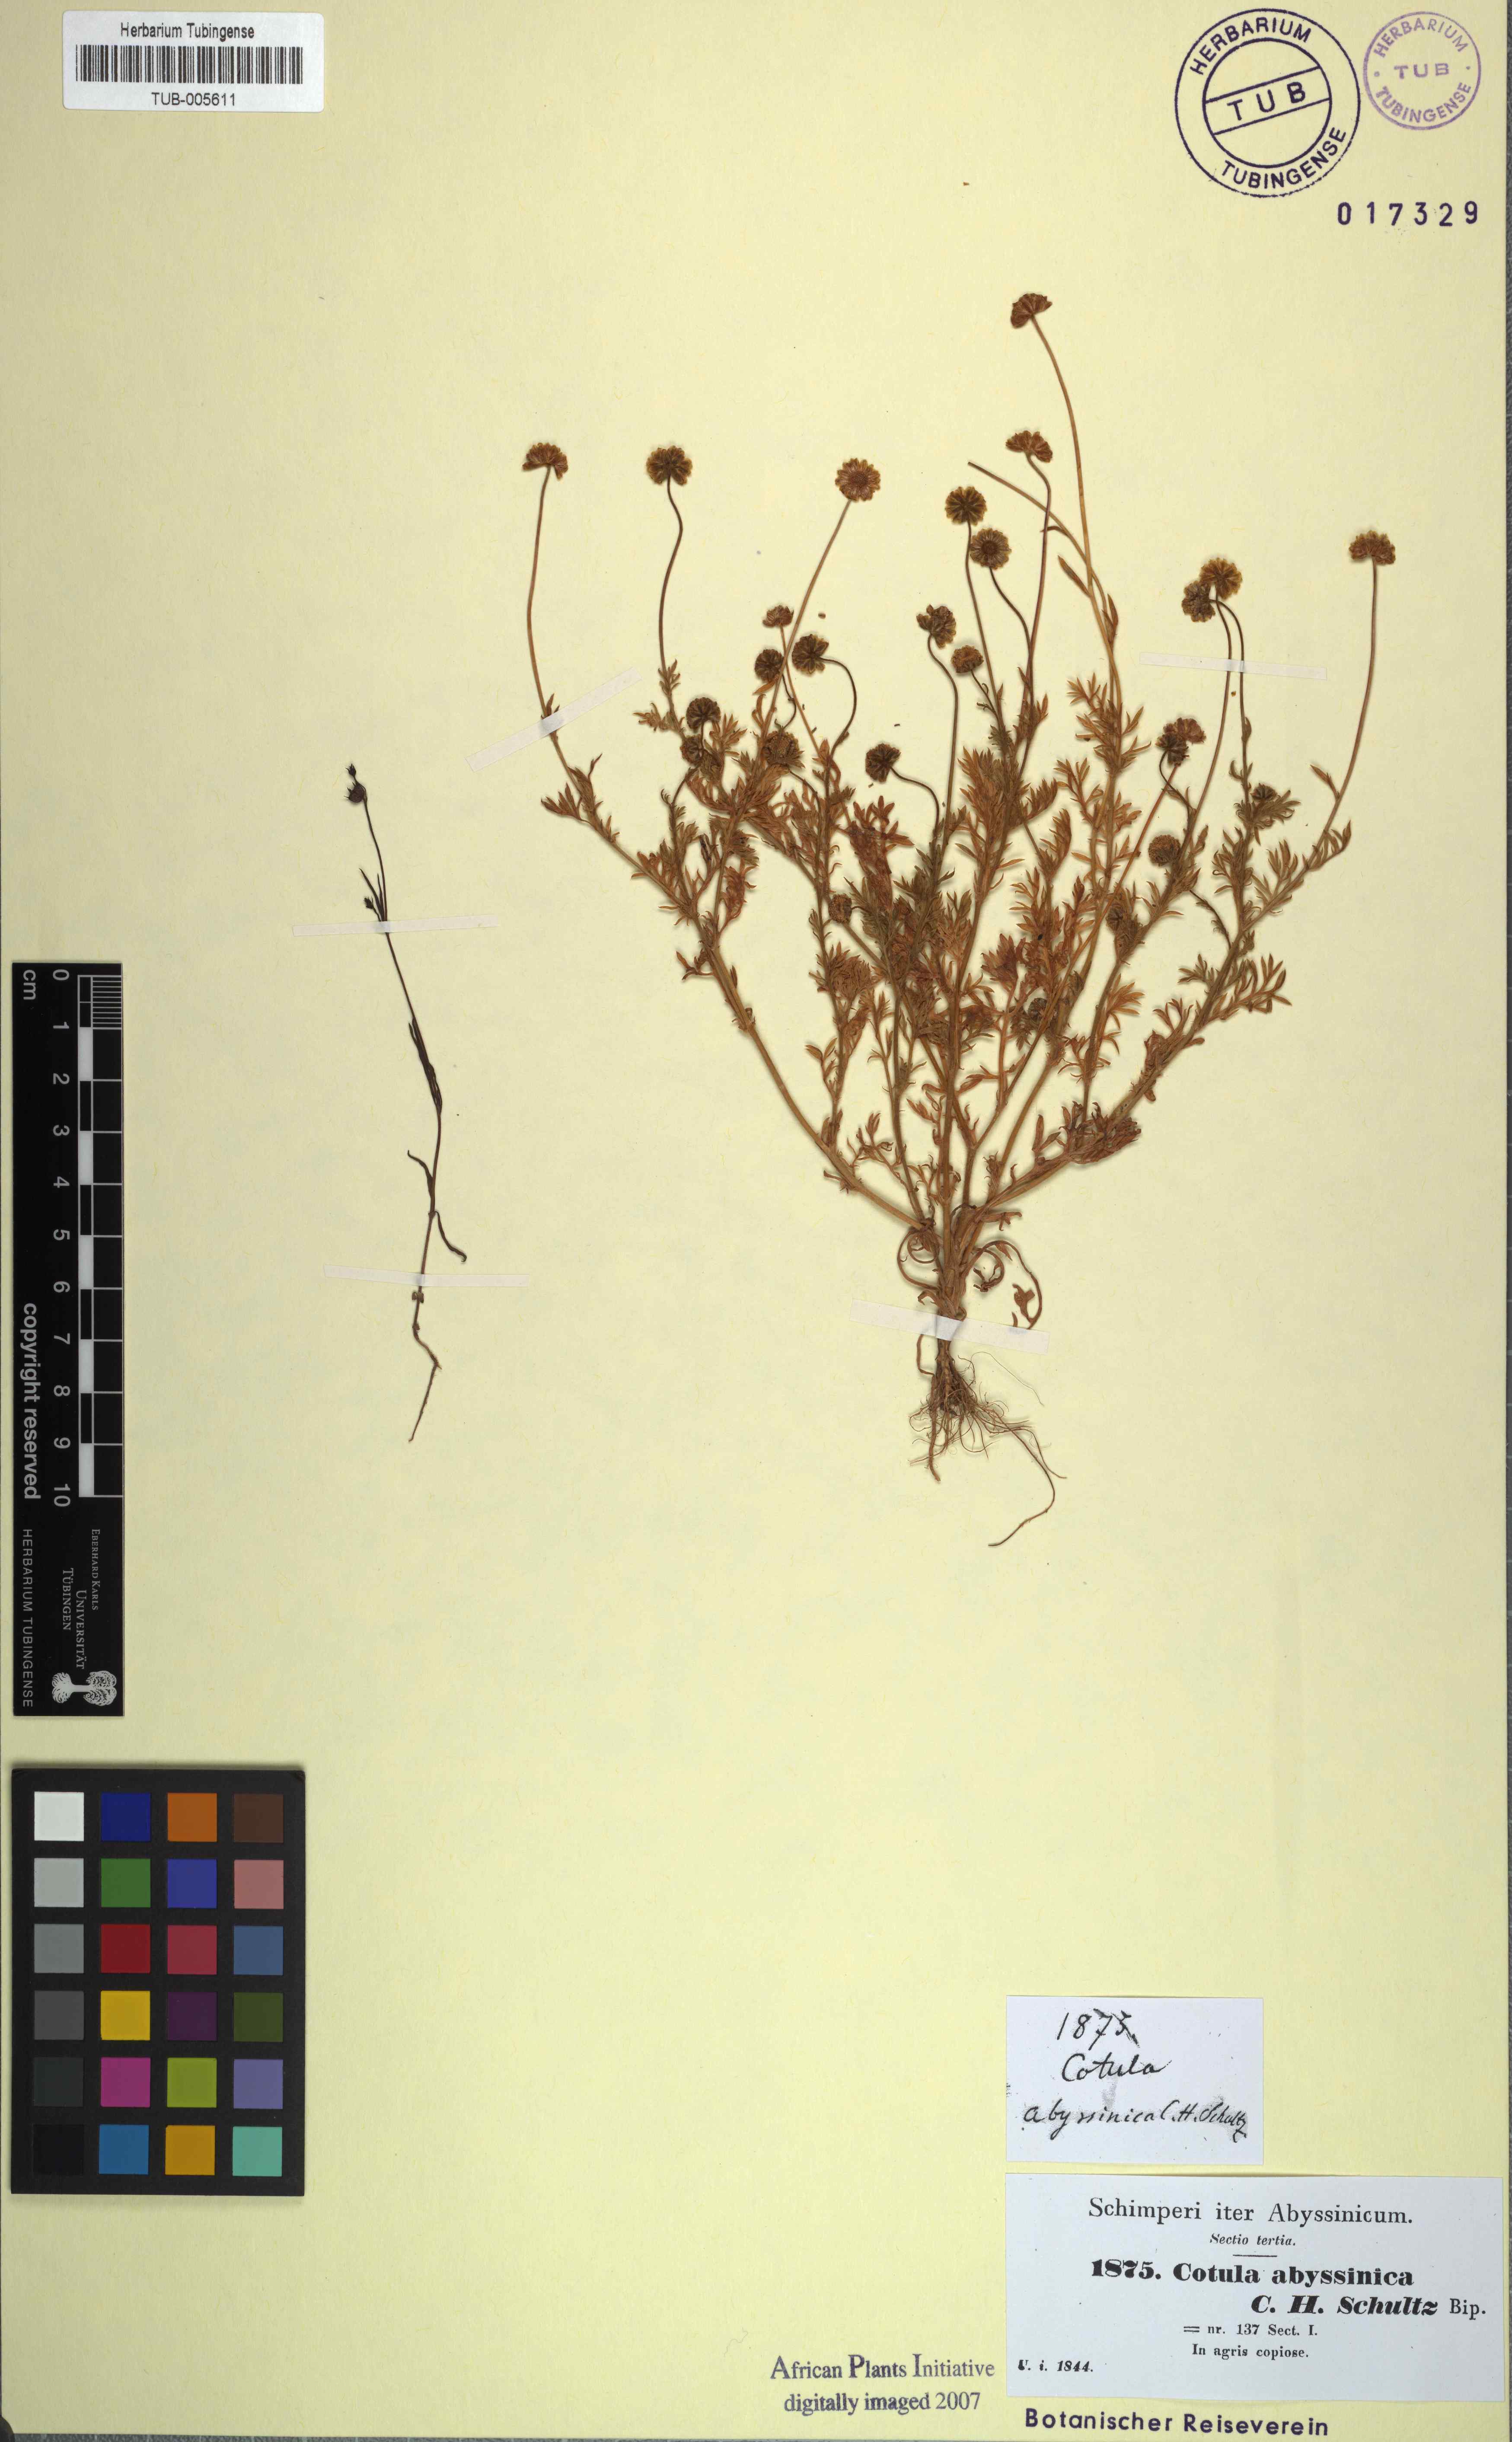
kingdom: Plantae
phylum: Tracheophyta
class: Magnoliopsida
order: Asterales
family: Asteraceae
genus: Cotula
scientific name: Cotula abyssinica
